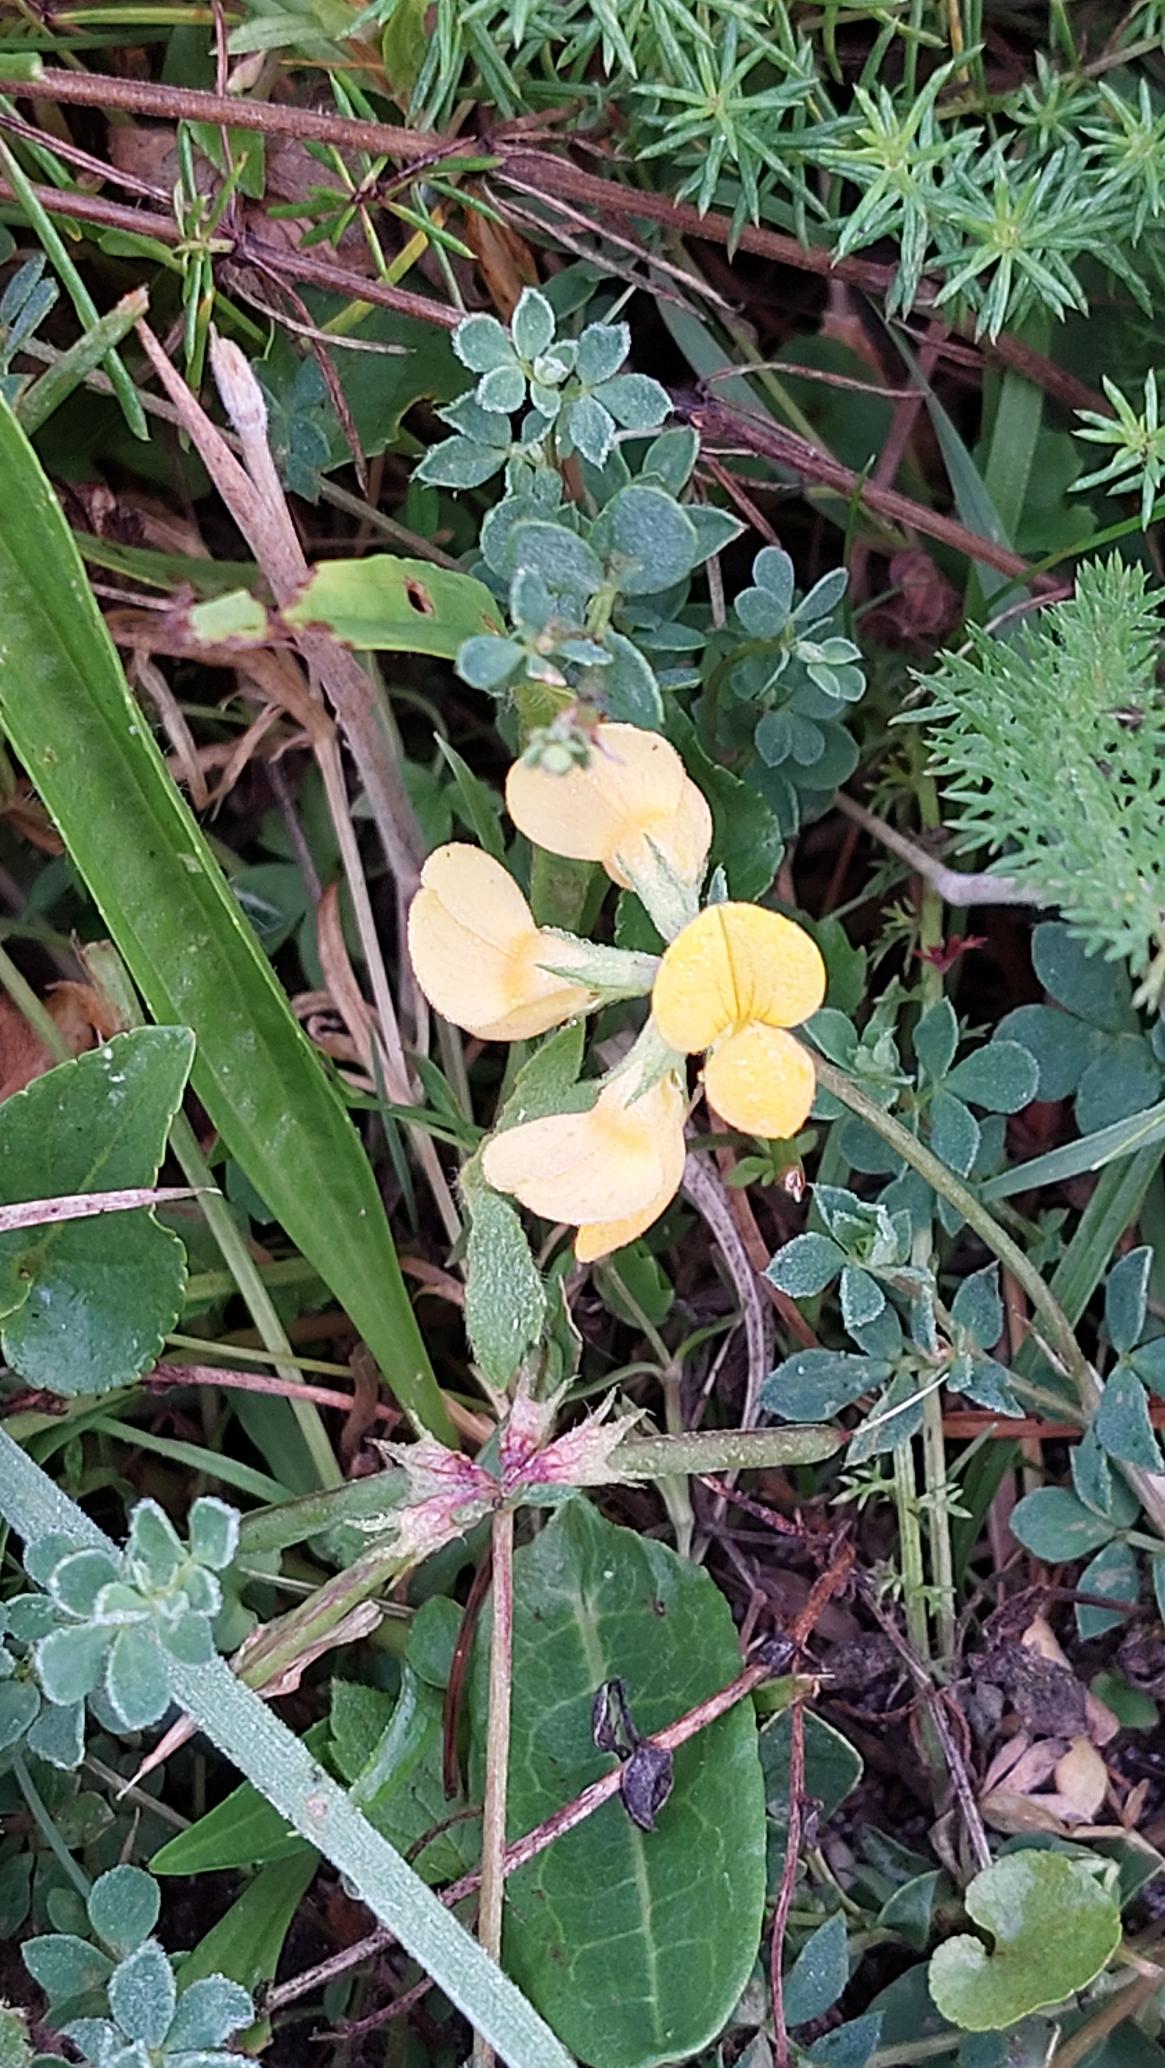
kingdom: Plantae
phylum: Tracheophyta
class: Magnoliopsida
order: Fabales
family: Fabaceae
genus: Lotus
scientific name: Lotus corniculatus
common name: Almindelig kællingetand
